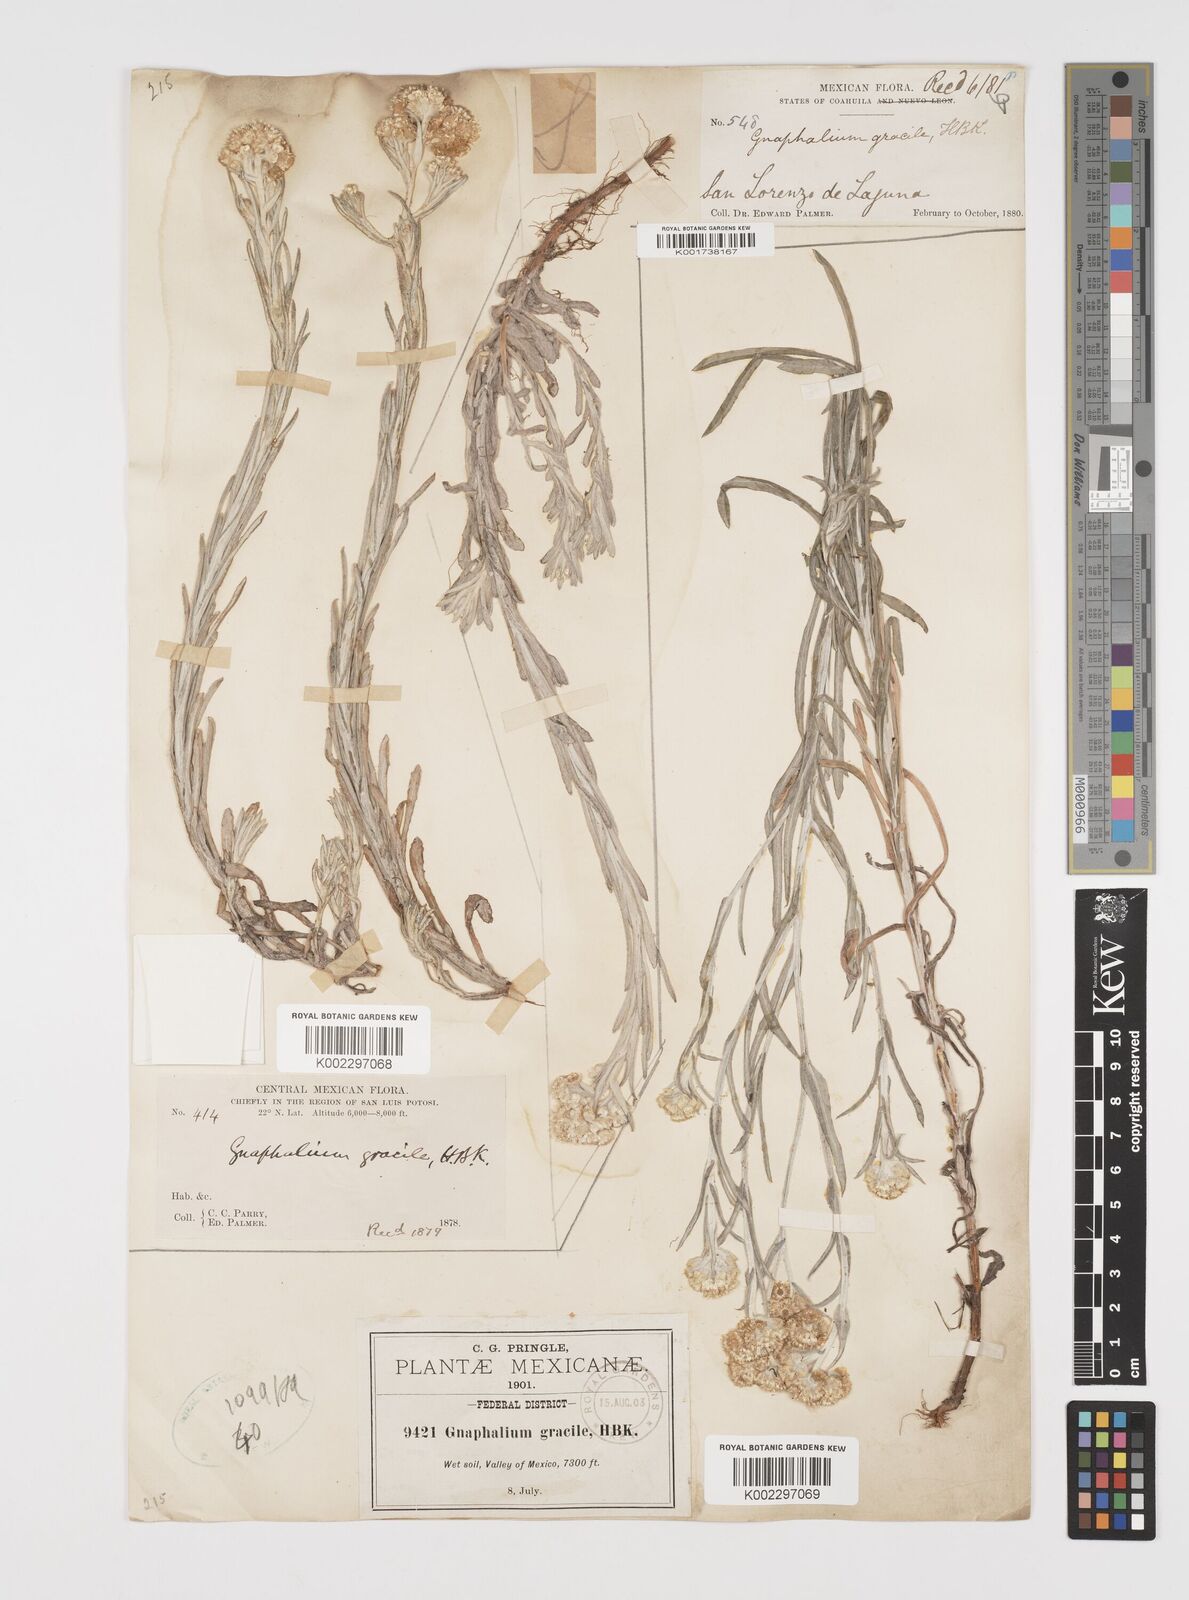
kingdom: Plantae
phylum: Tracheophyta
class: Magnoliopsida
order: Asterales
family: Asteraceae
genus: Pseudognaphalium
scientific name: Pseudognaphalium
